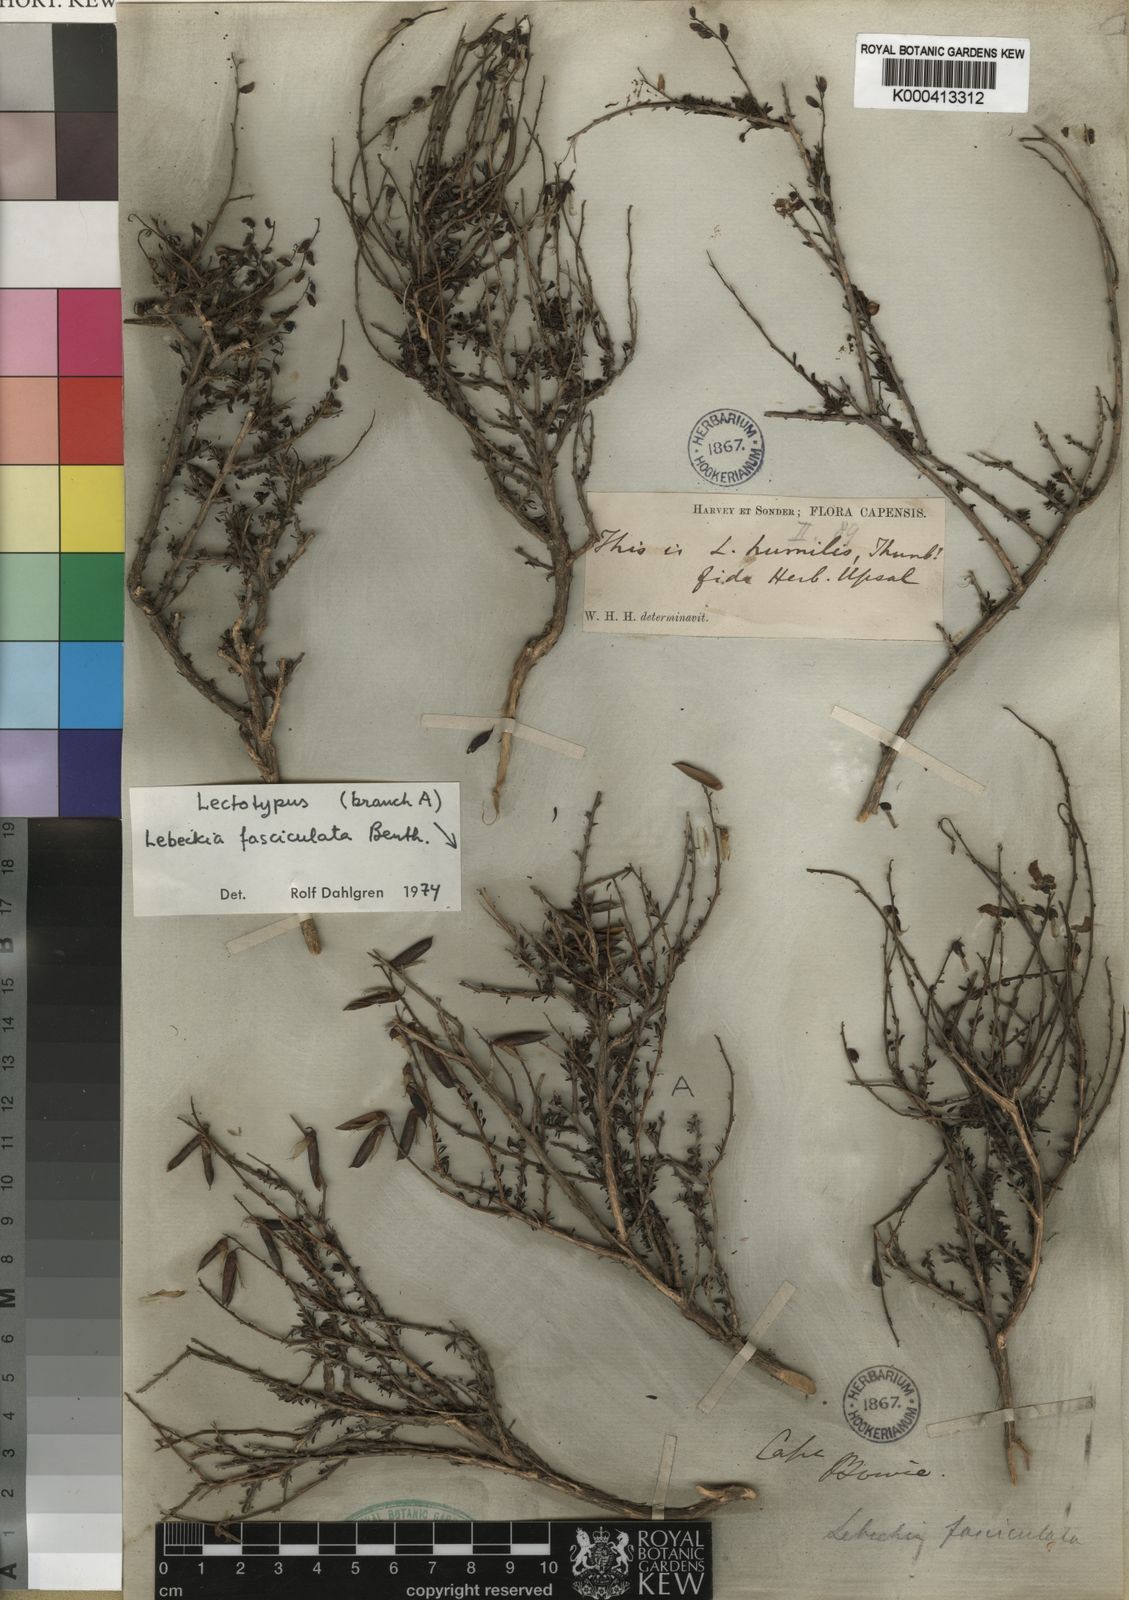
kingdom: Plantae
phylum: Tracheophyta
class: Magnoliopsida
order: Fabales
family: Fabaceae
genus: Wiborgiella
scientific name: Wiborgiella humilis
